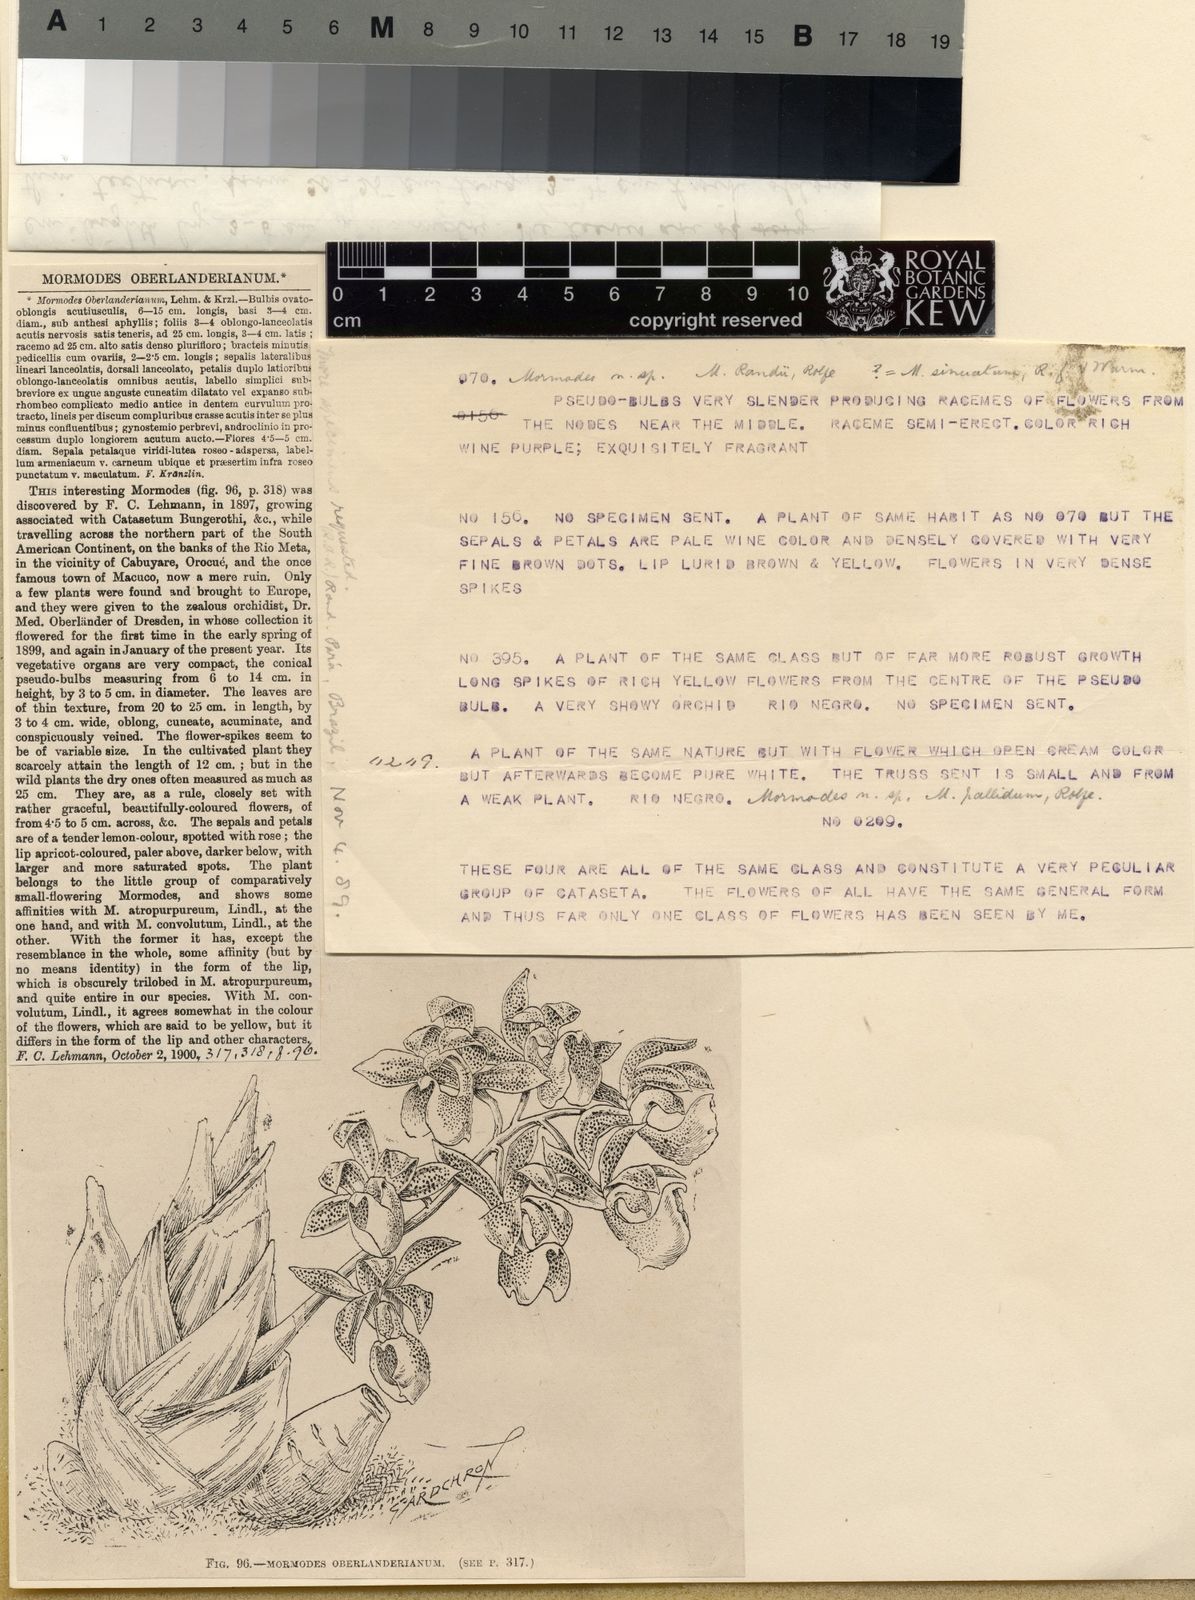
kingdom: Plantae
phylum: Tracheophyta
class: Liliopsida
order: Asparagales
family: Orchidaceae
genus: Mormodes
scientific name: Mormodes
